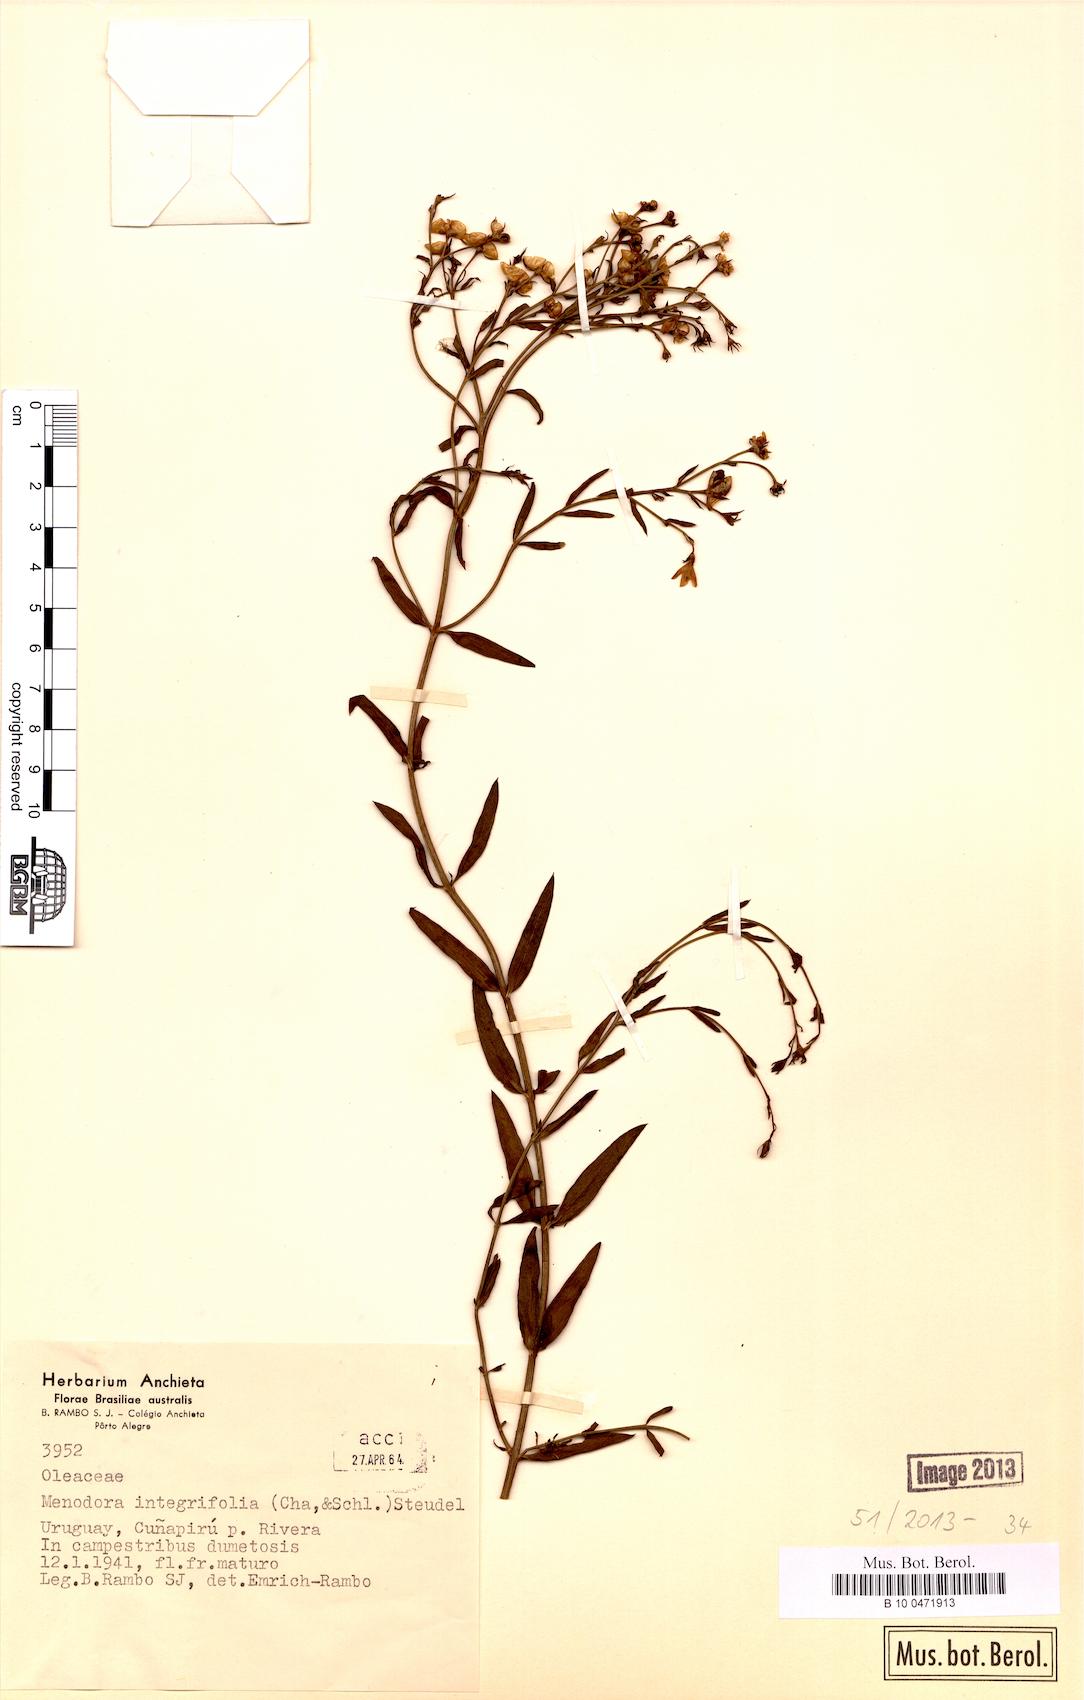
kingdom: Plantae
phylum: Tracheophyta
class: Magnoliopsida
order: Lamiales
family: Oleaceae
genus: Menodora
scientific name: Menodora integrifolia
